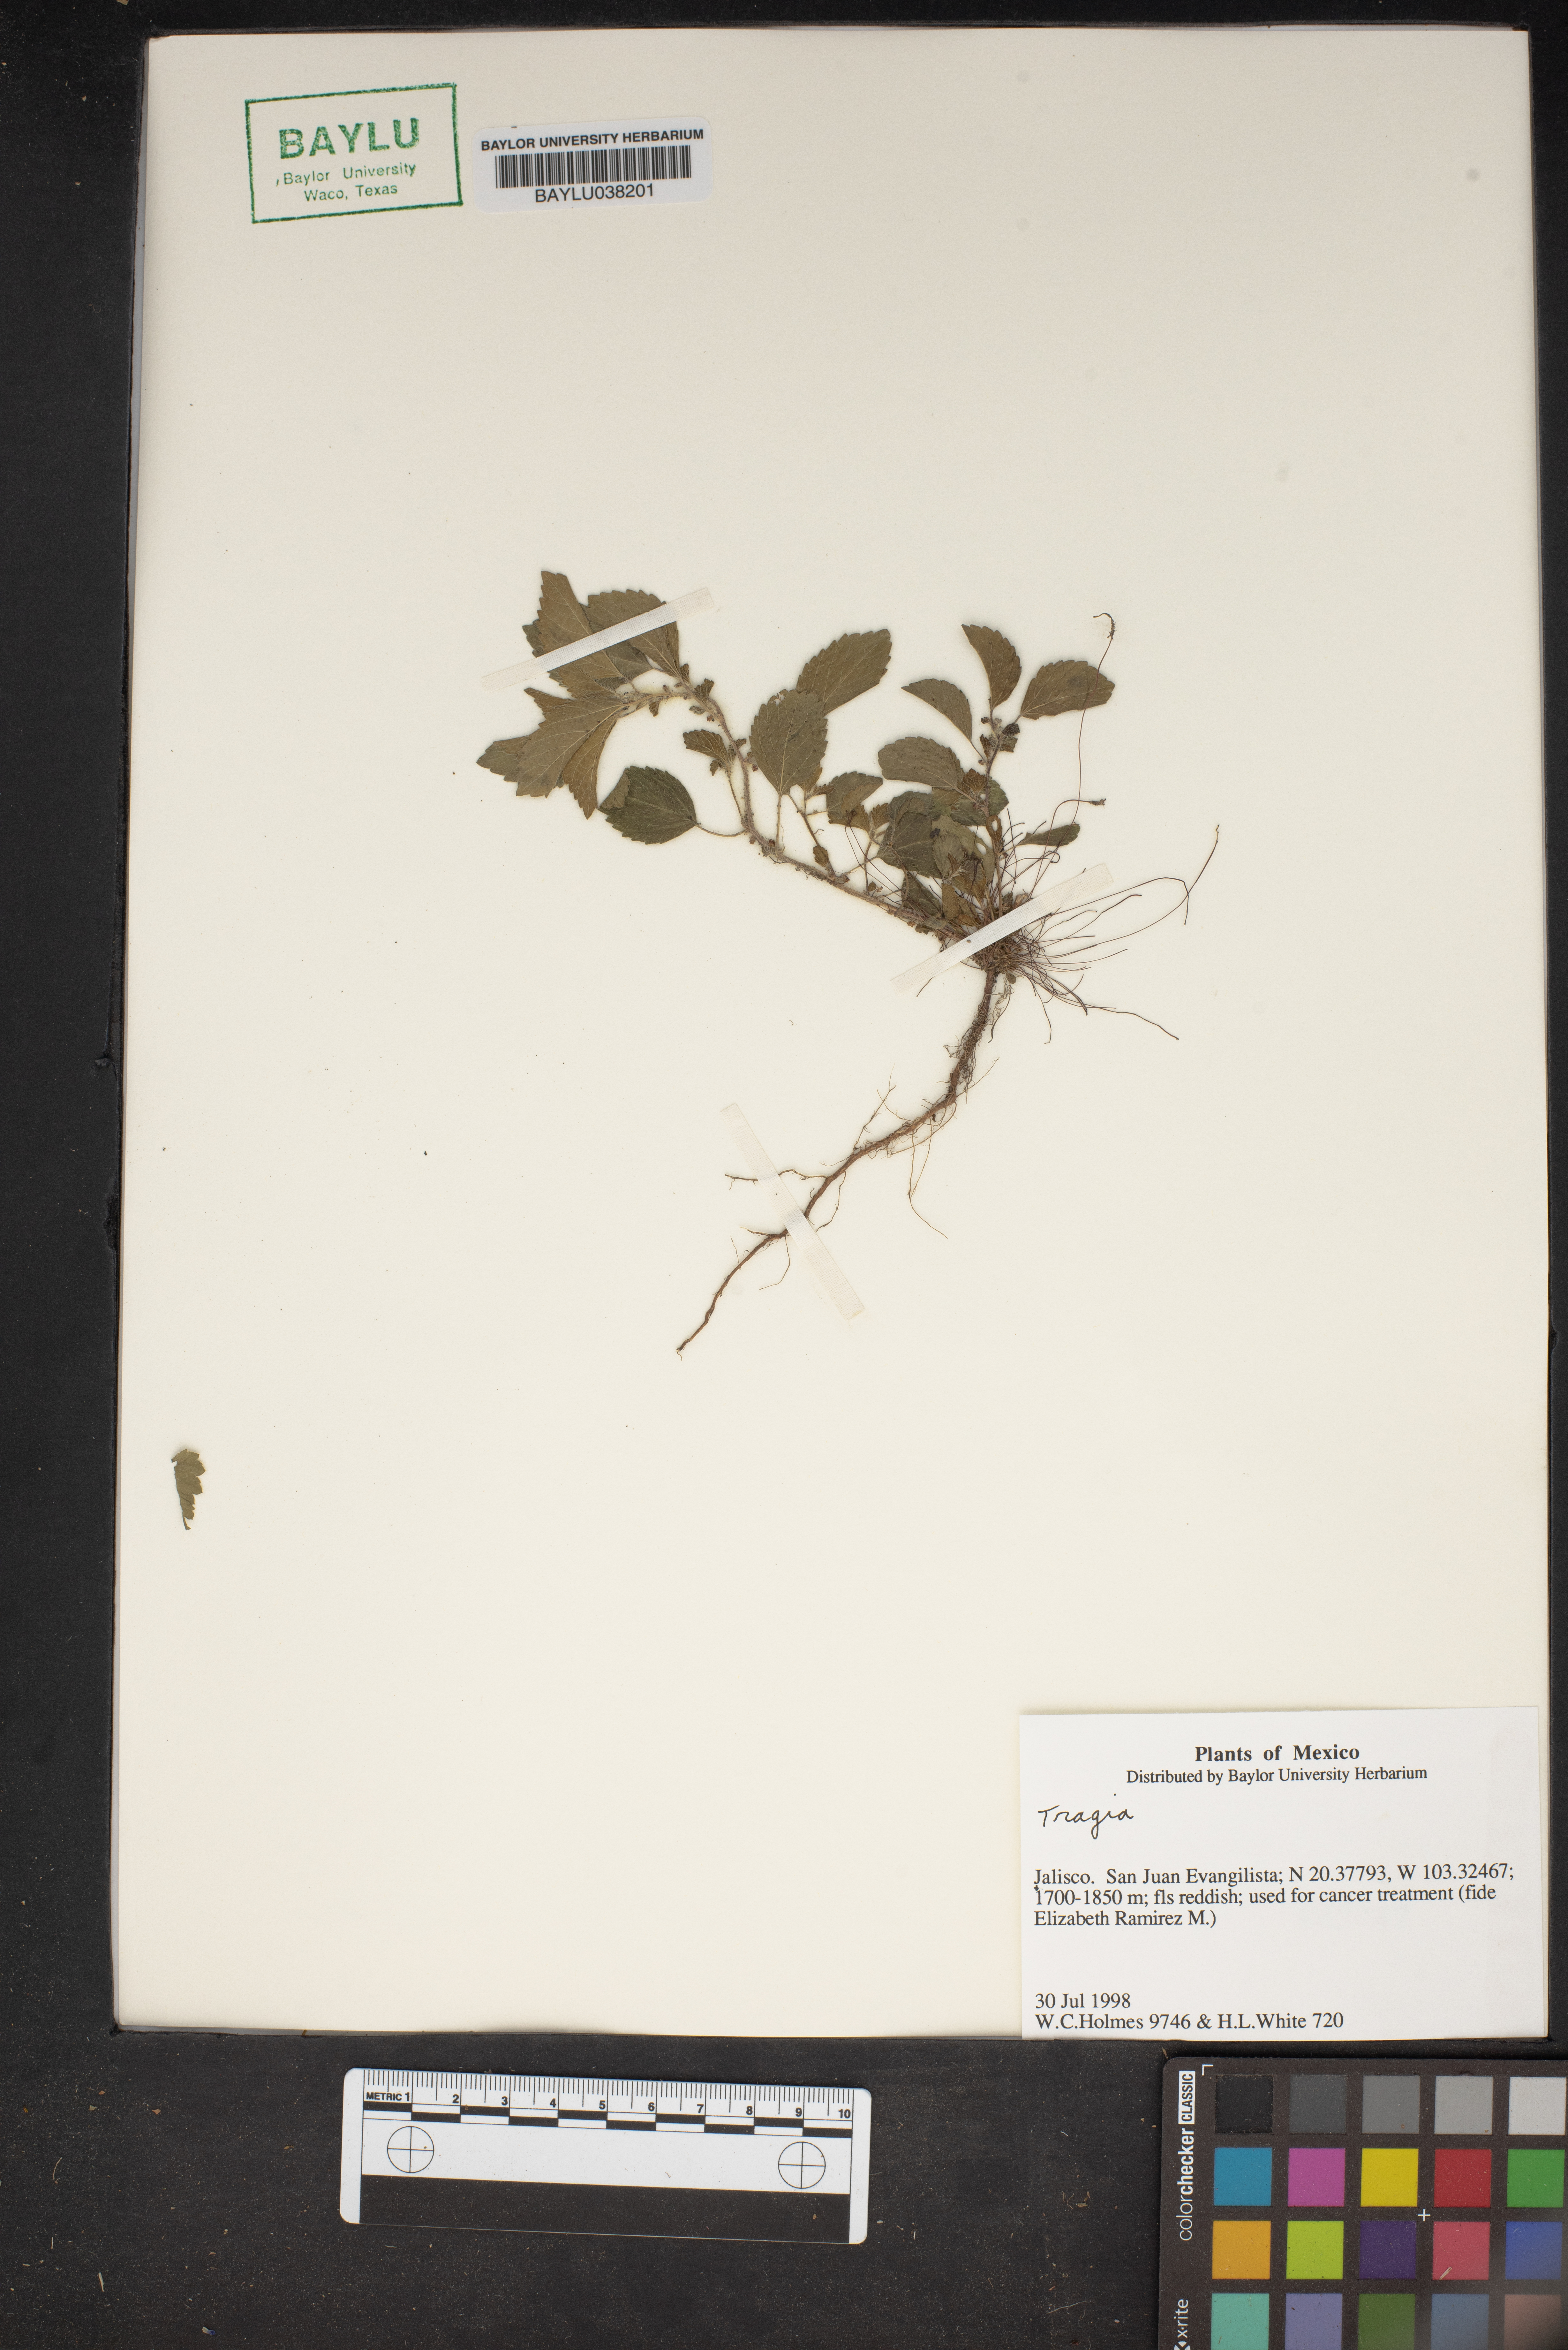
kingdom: Plantae
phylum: Tracheophyta
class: Magnoliopsida
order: Malpighiales
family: Euphorbiaceae
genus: Tragia
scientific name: Tragia
